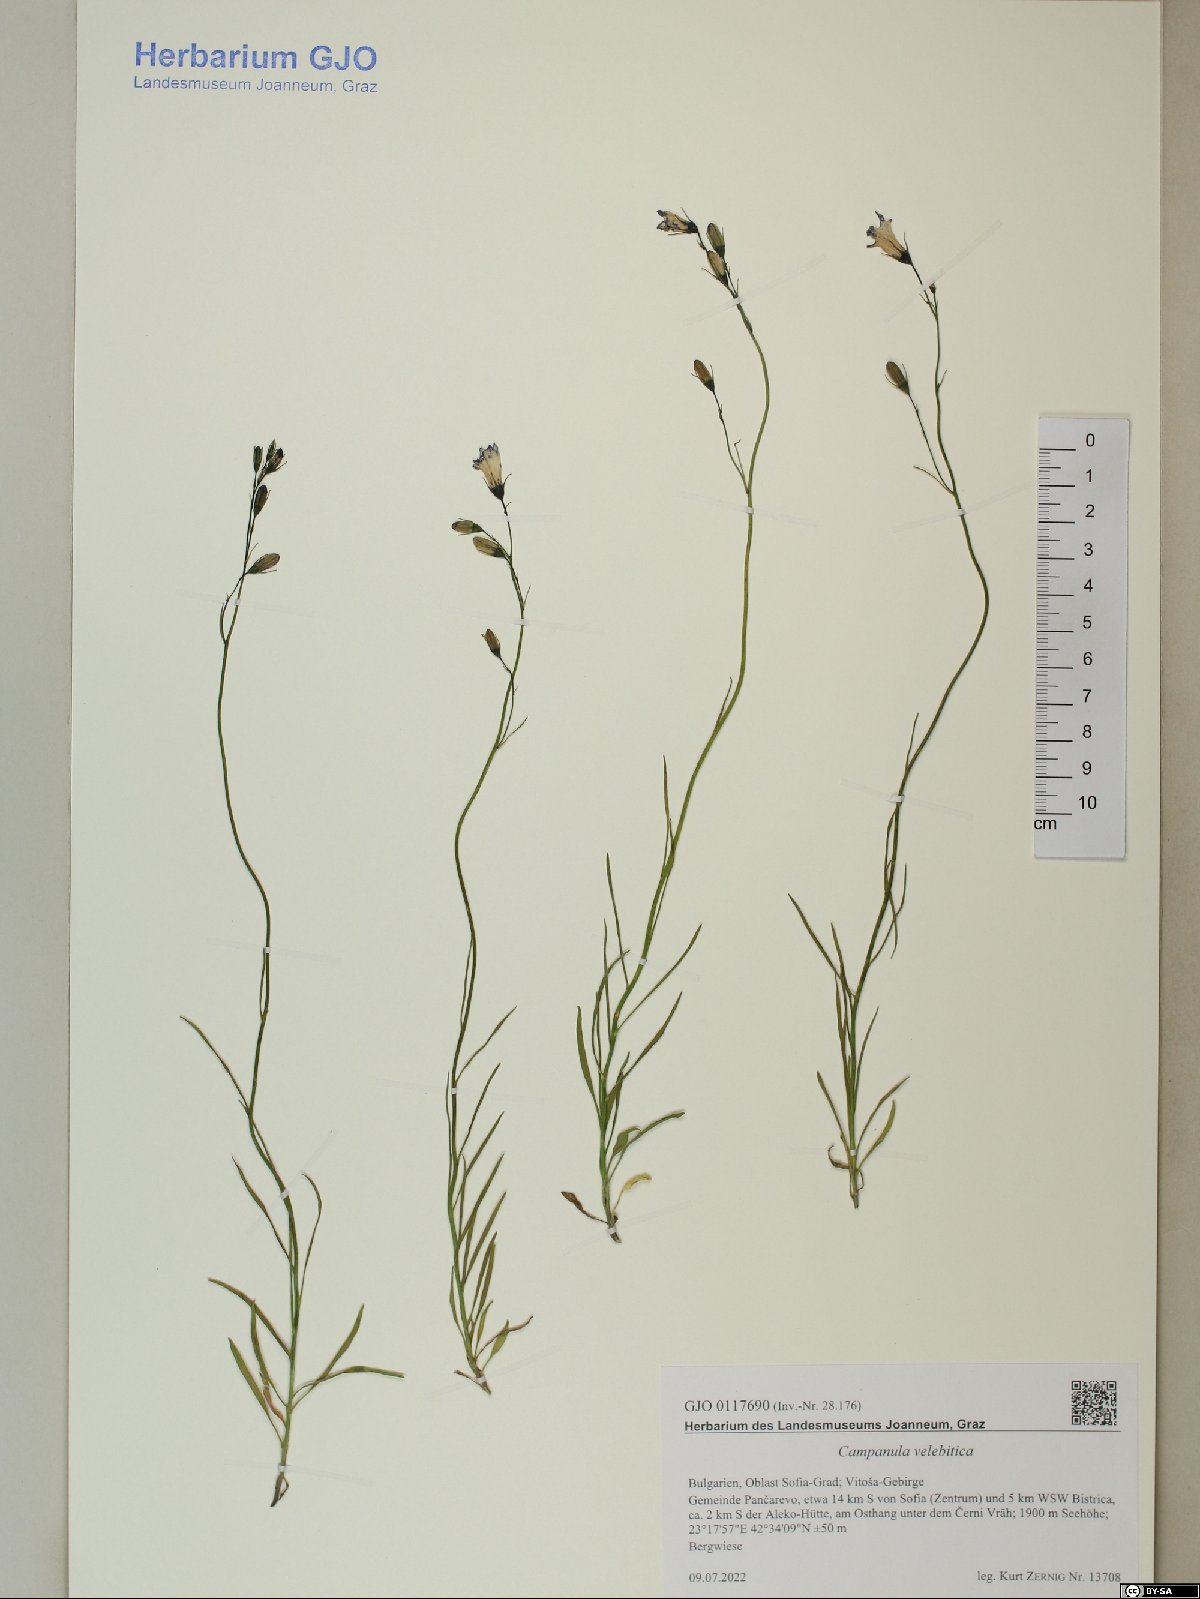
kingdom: Plantae
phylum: Tracheophyta
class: Magnoliopsida
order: Asterales
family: Campanulaceae
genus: Campanula
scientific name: Campanula velebitica
